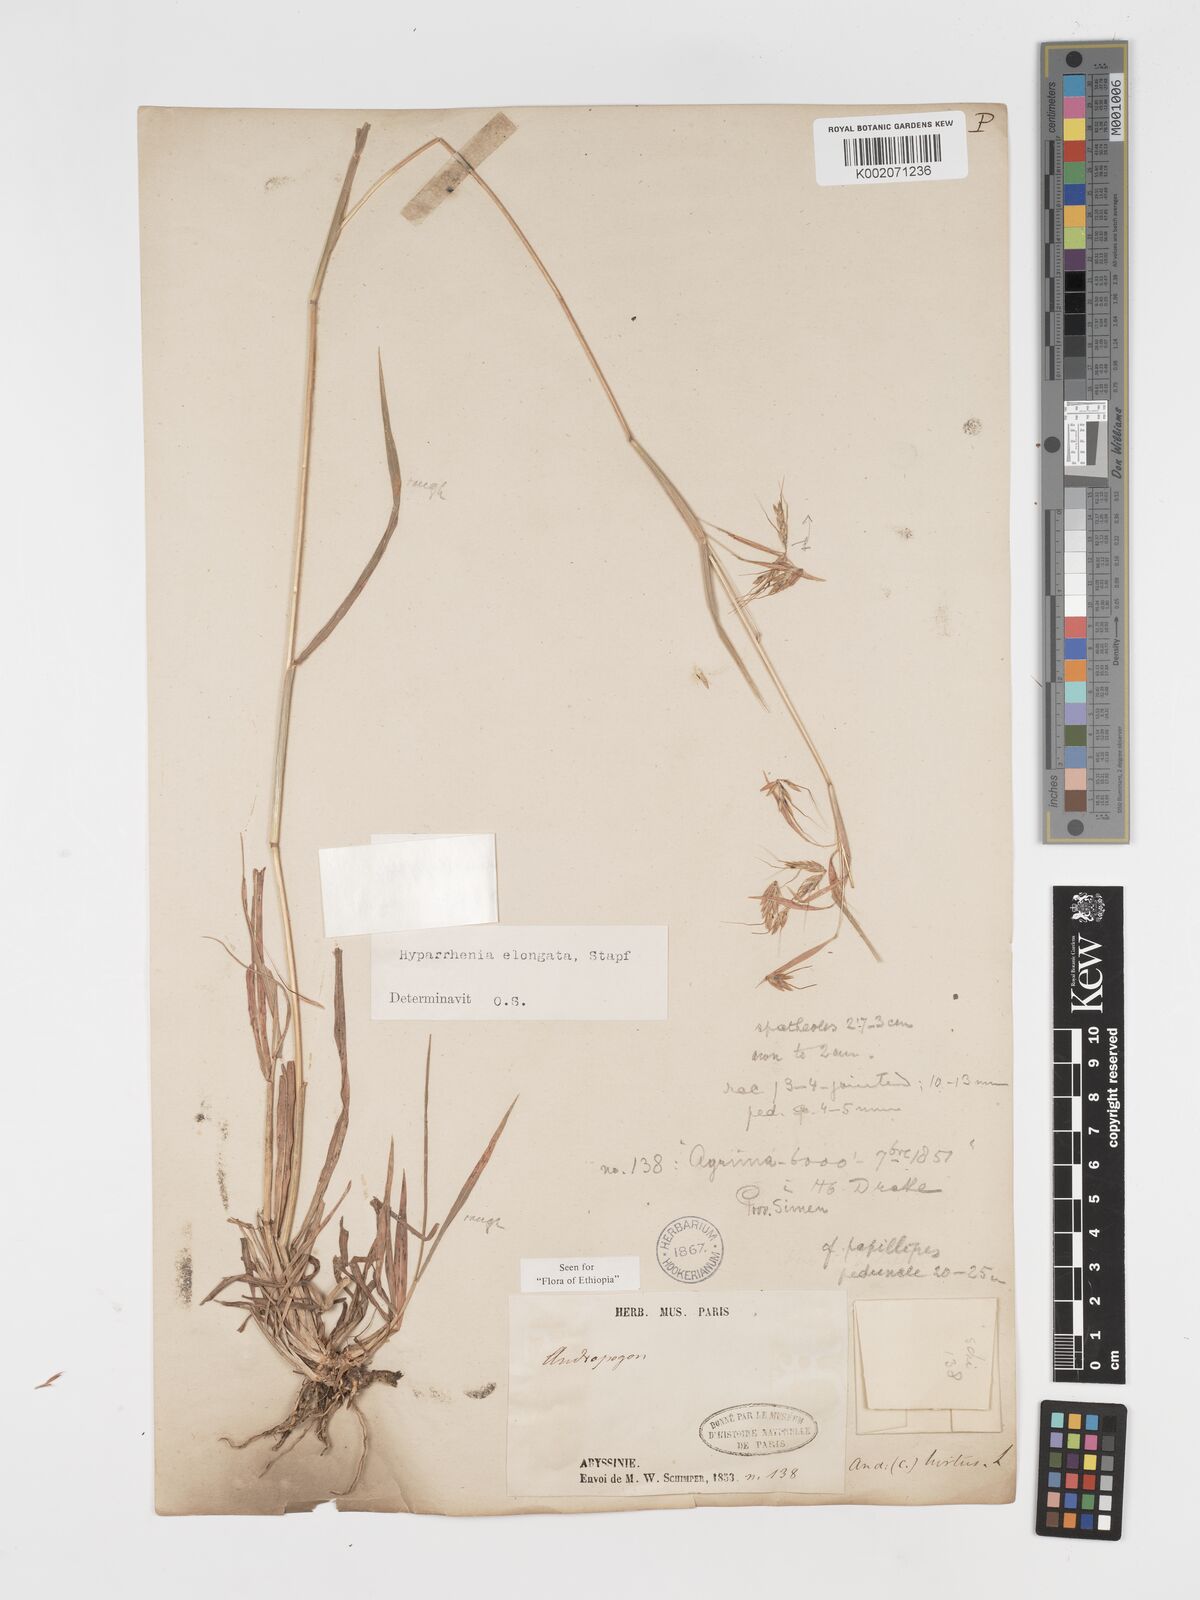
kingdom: Plantae
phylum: Tracheophyta
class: Liliopsida
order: Poales
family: Poaceae
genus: Hyparrhenia
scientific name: Hyparrhenia collina
